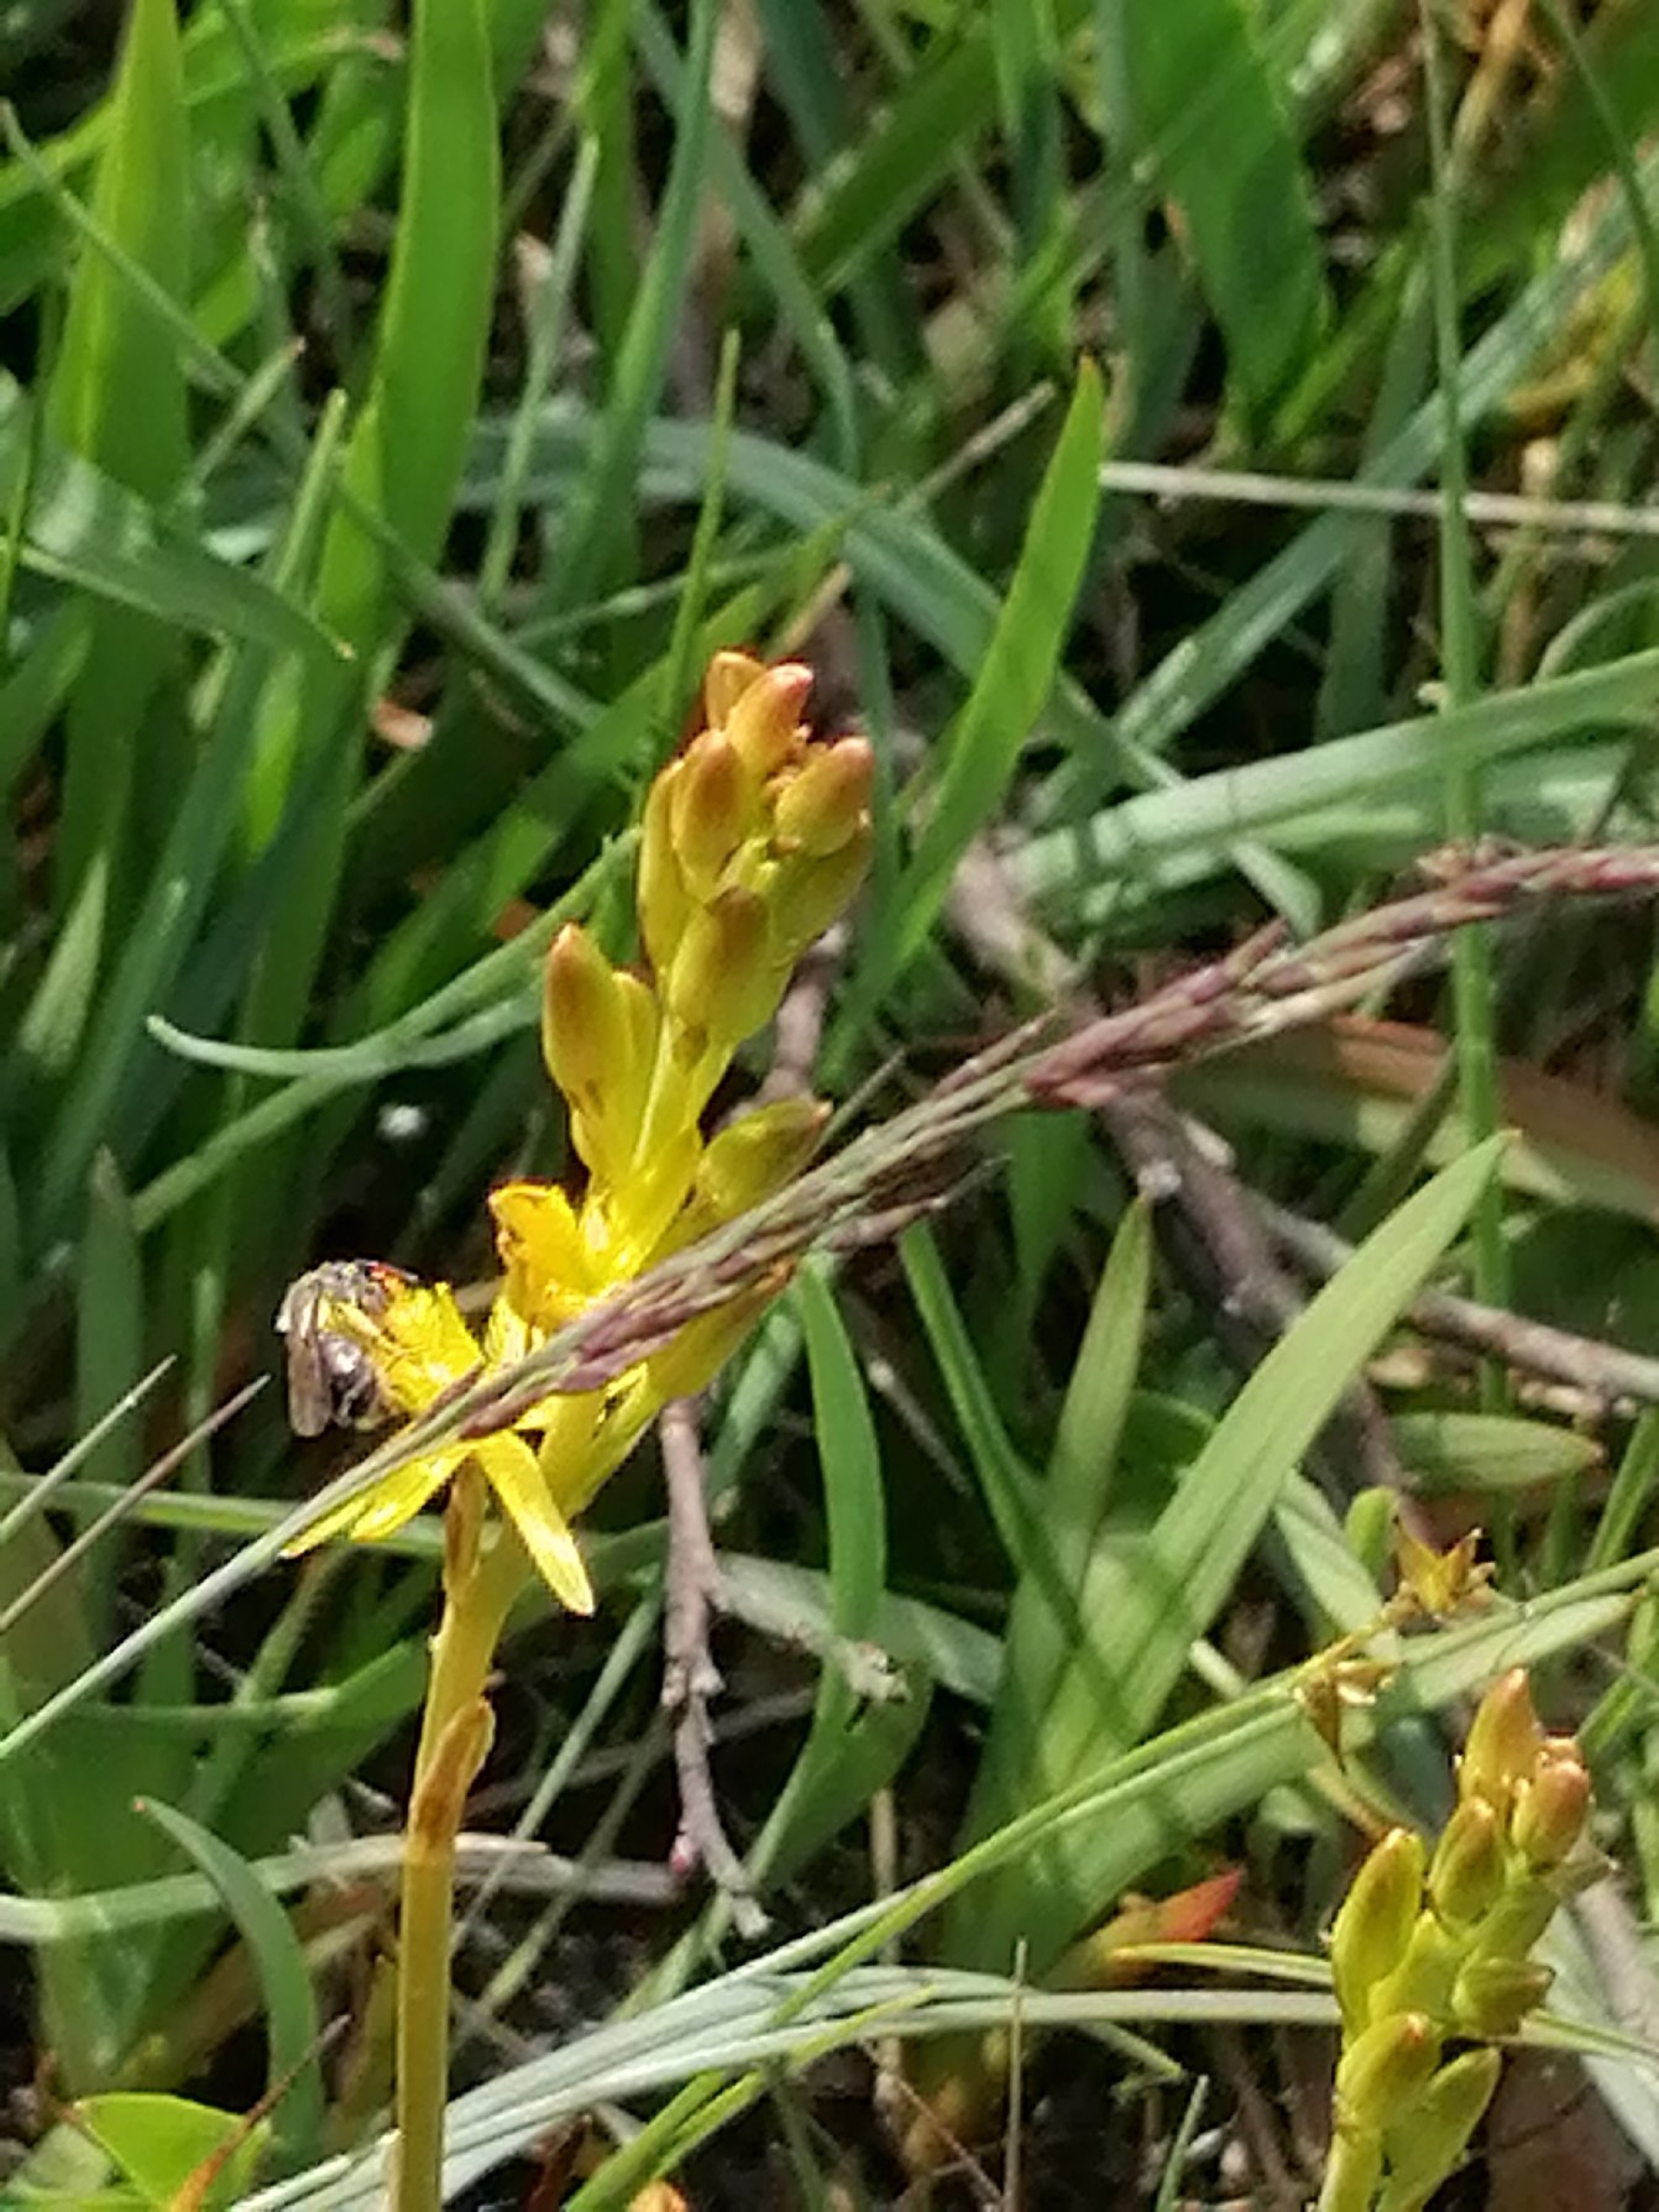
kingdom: Plantae
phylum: Tracheophyta
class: Liliopsida
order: Dioscoreales
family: Nartheciaceae
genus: Narthecium
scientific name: Narthecium ossifragum
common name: Benbræk
